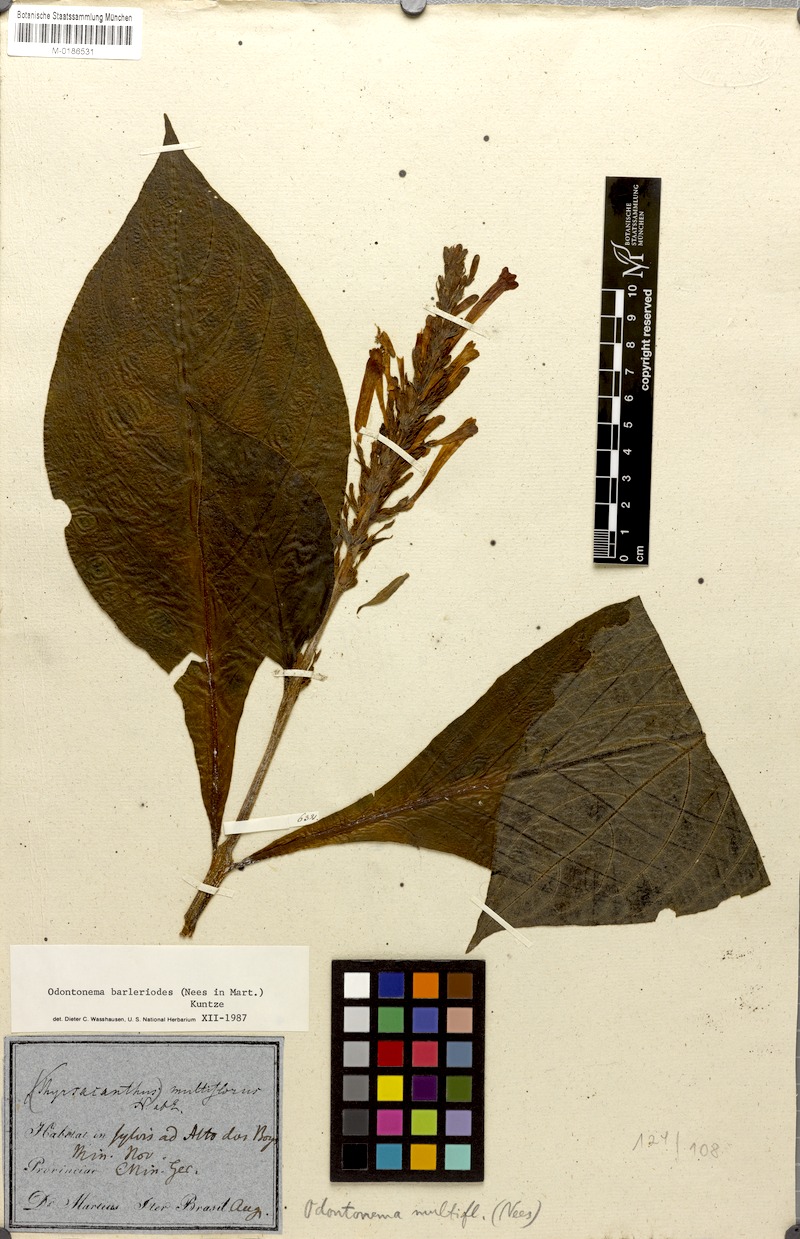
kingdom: Plantae
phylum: Tracheophyta
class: Magnoliopsida
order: Lamiales
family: Acanthaceae
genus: Odontonema
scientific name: Odontonema barleriodes
